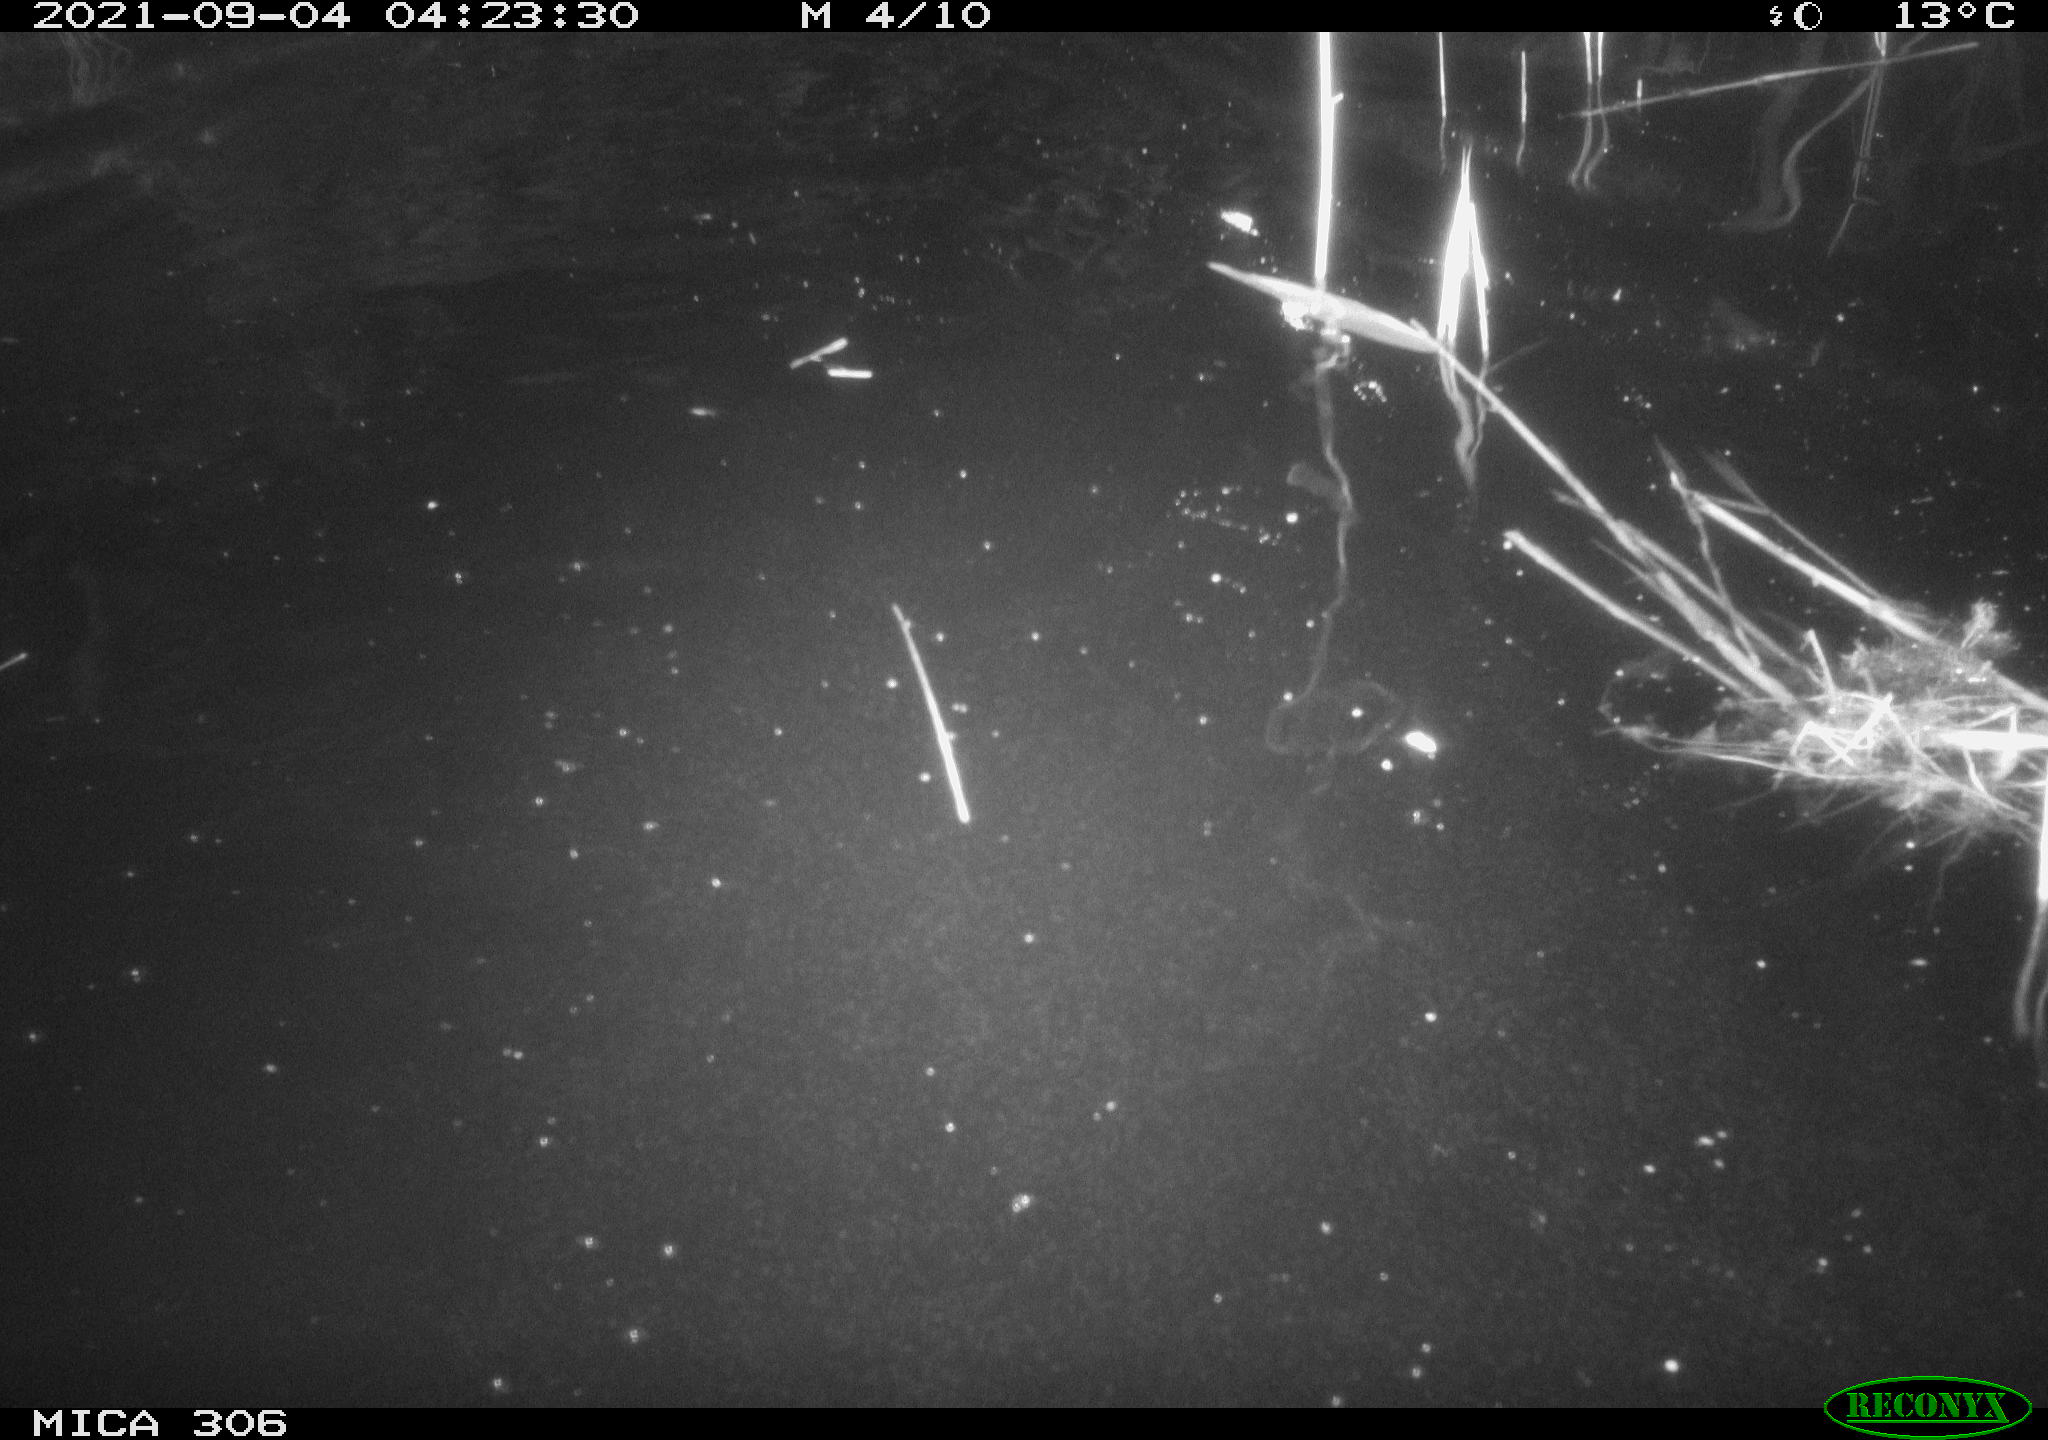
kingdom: Animalia
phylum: Chordata
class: Mammalia
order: Rodentia
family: Cricetidae
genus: Ondatra
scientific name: Ondatra zibethicus
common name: Muskrat
